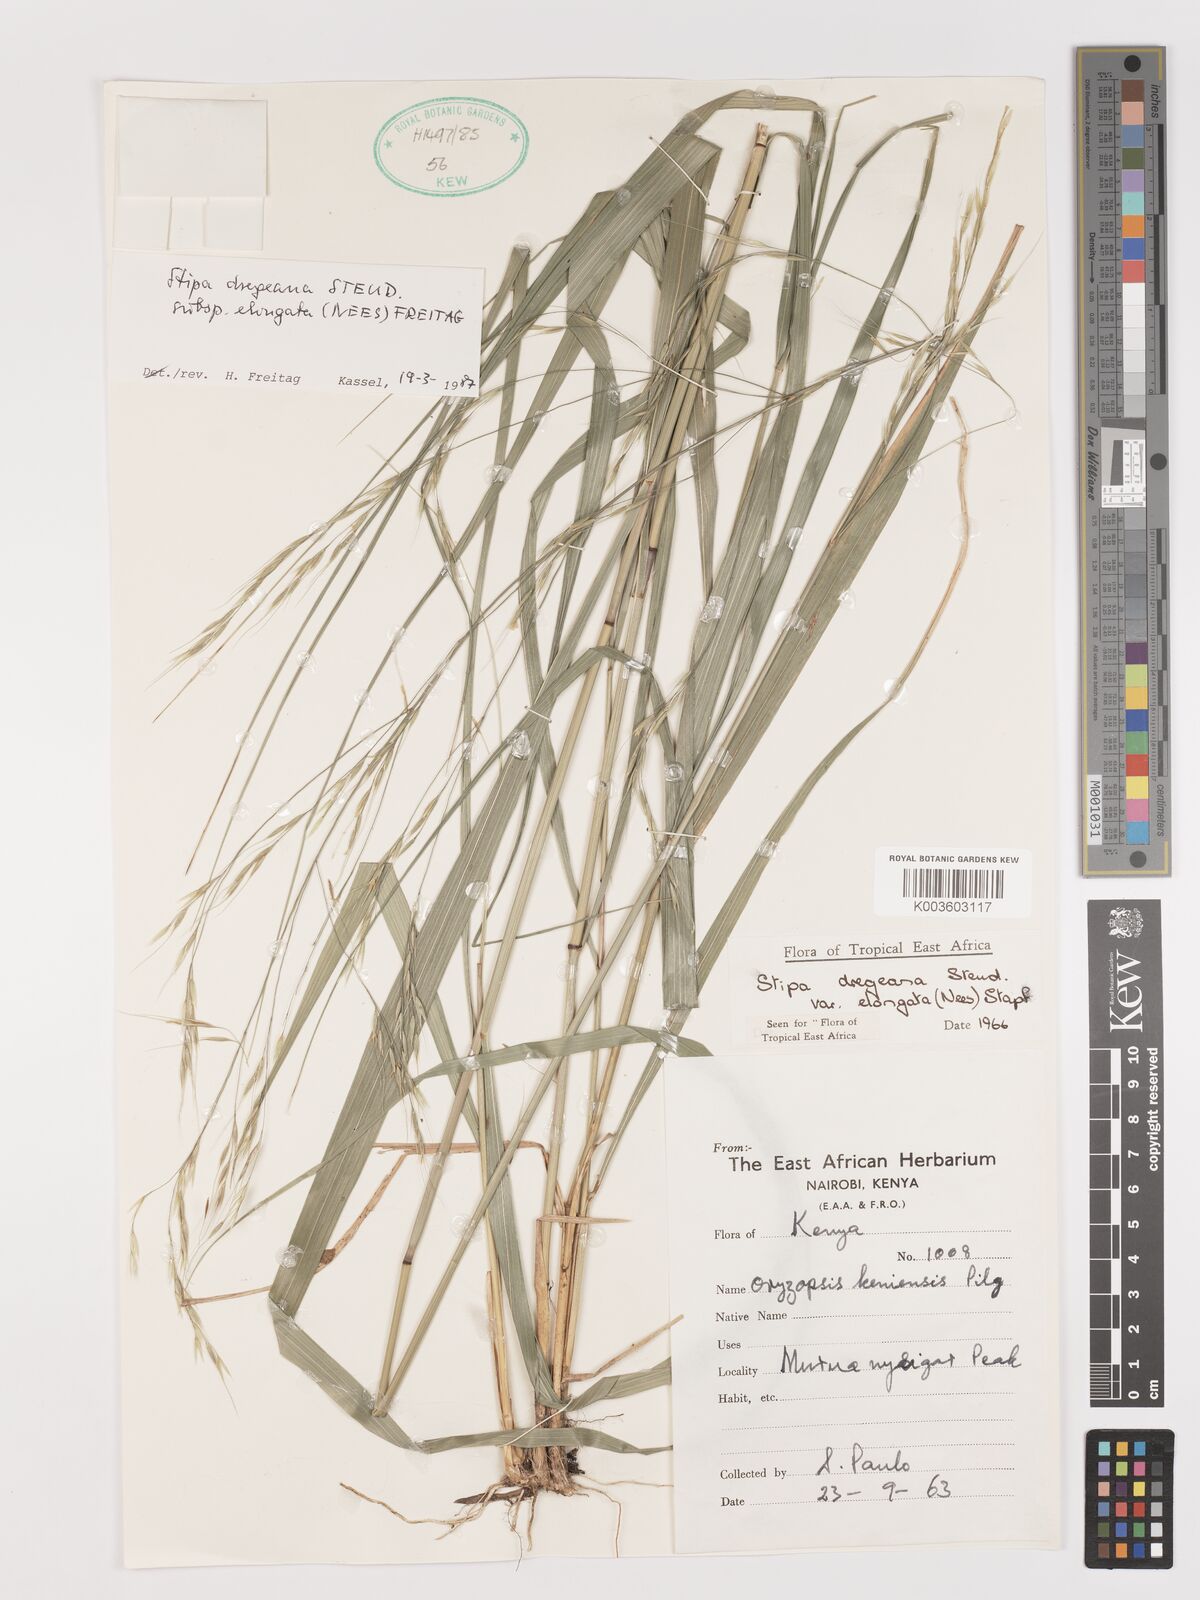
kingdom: Plantae
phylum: Tracheophyta
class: Liliopsida
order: Poales
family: Poaceae
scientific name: Poaceae
